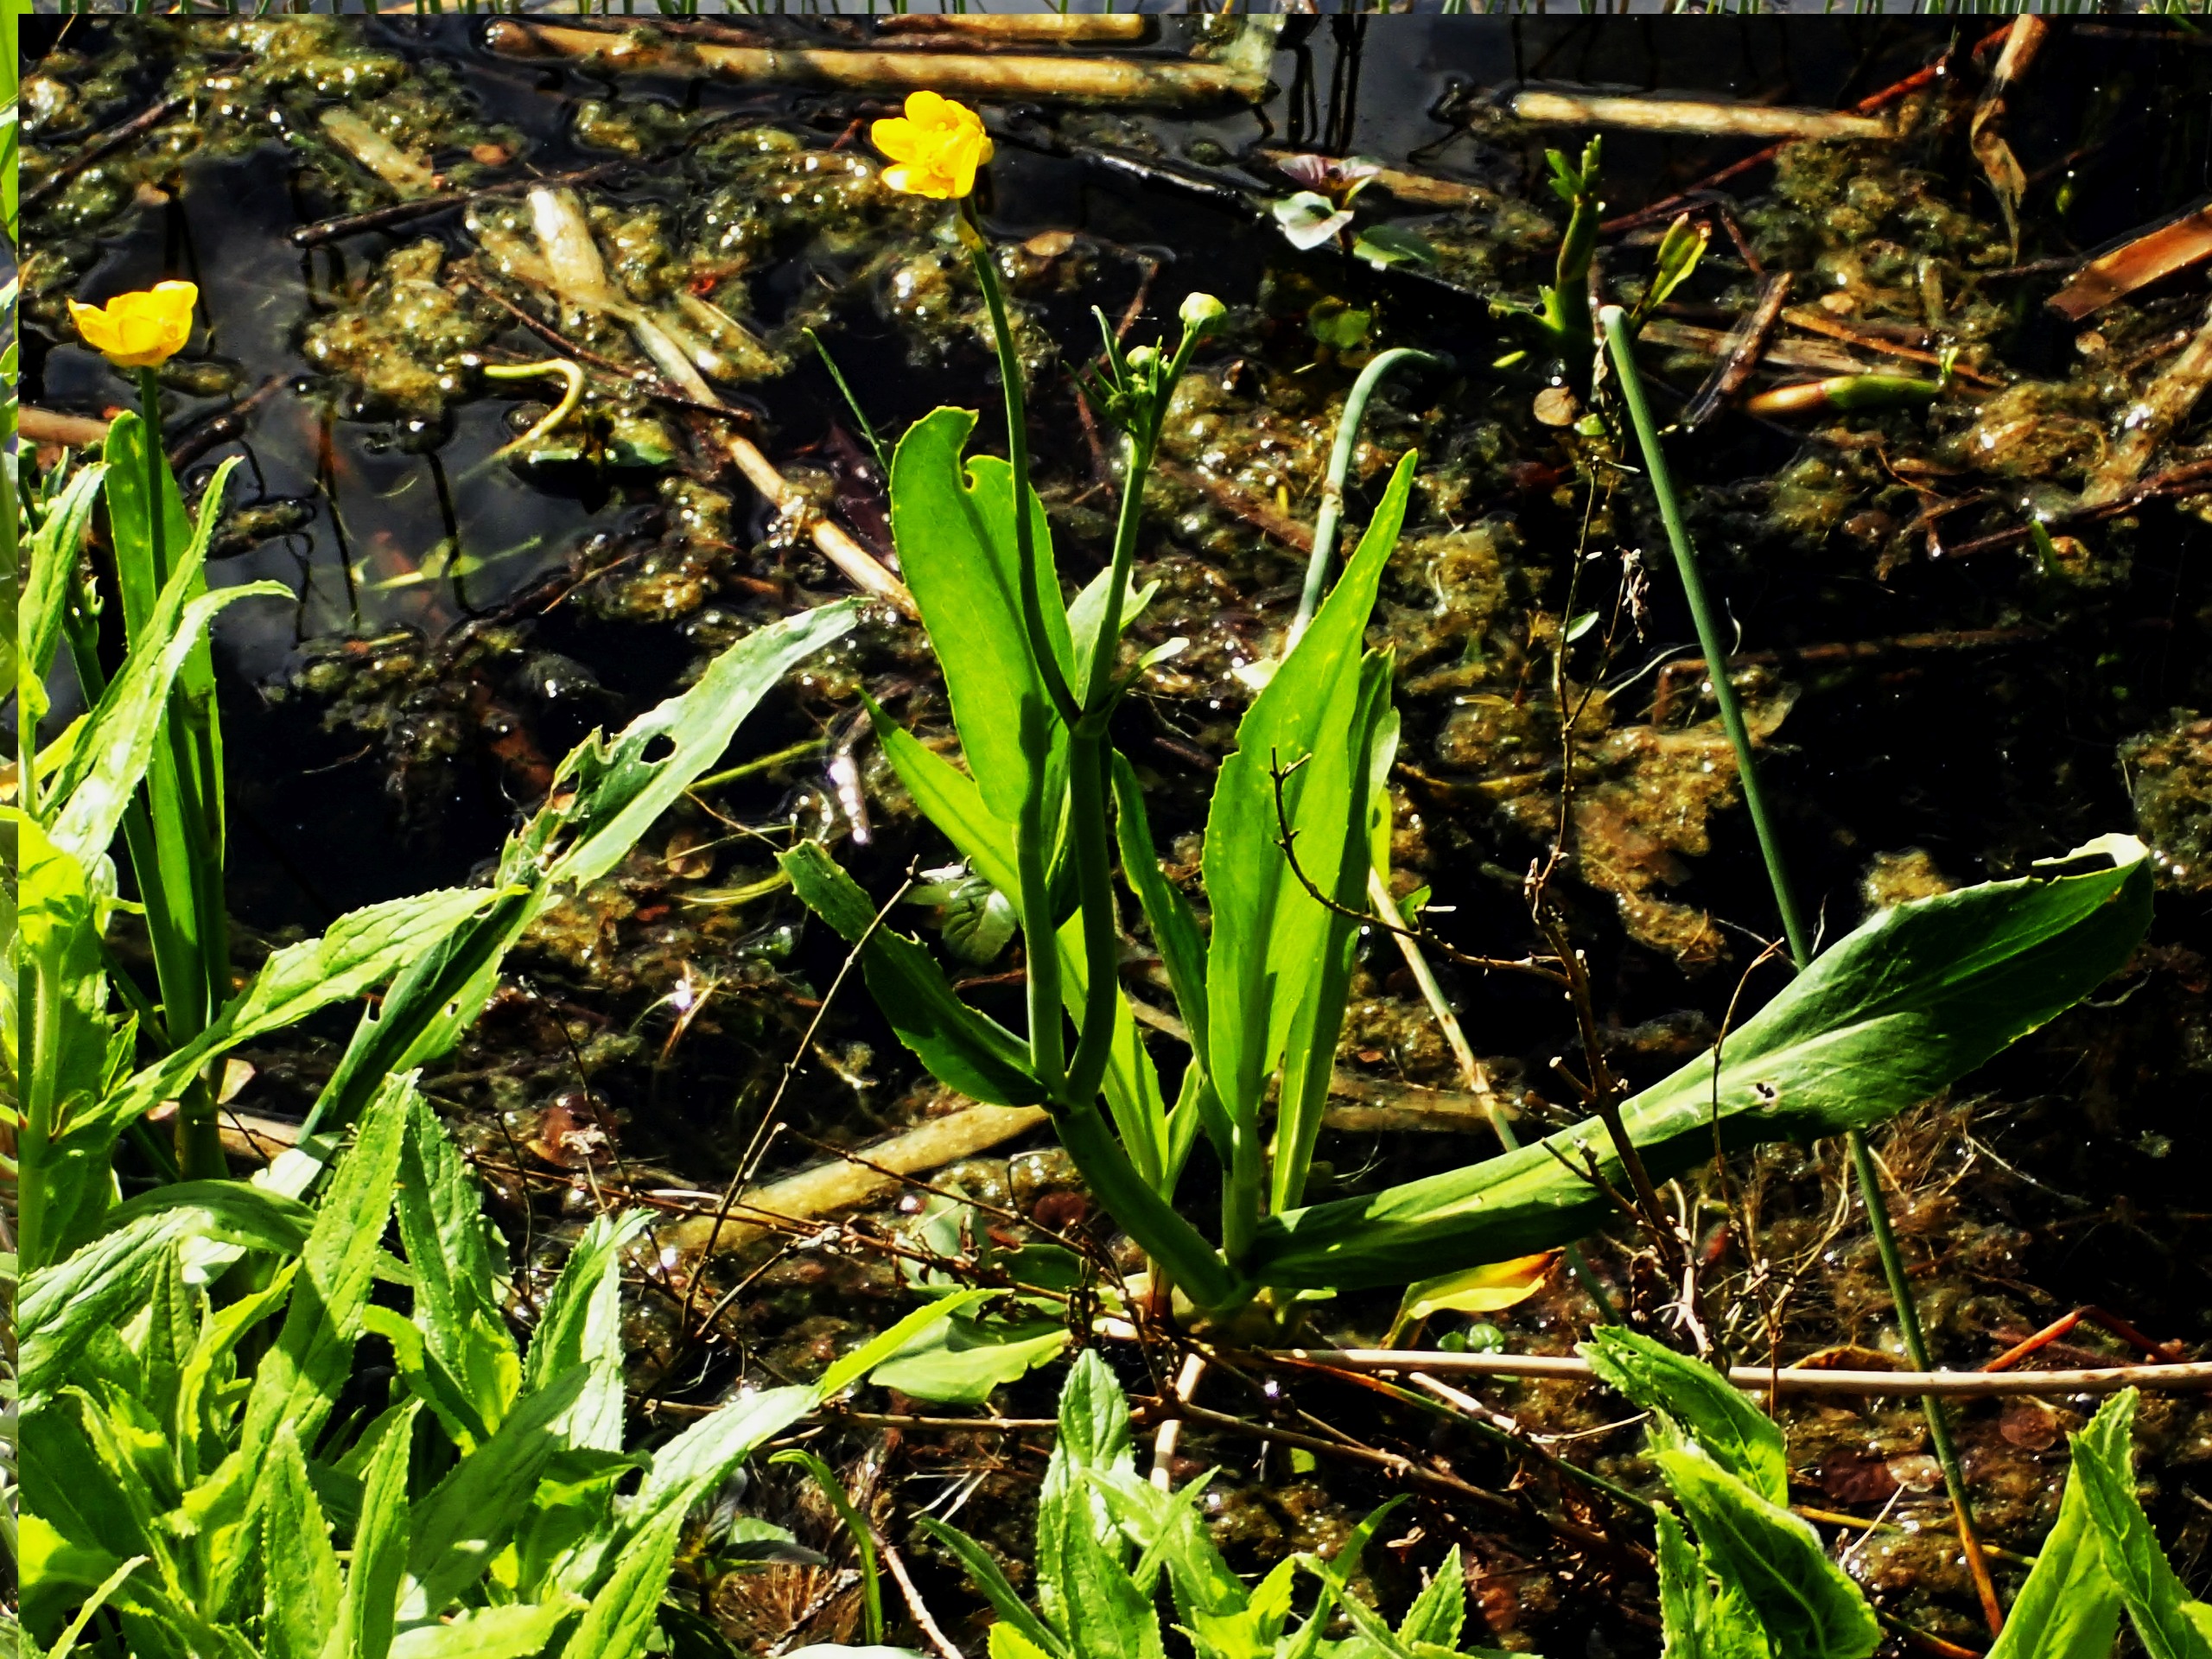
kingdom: Plantae
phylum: Tracheophyta
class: Magnoliopsida
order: Ranunculales
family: Ranunculaceae
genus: Ranunculus
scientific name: Ranunculus lingua
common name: Langbladet ranunkel
